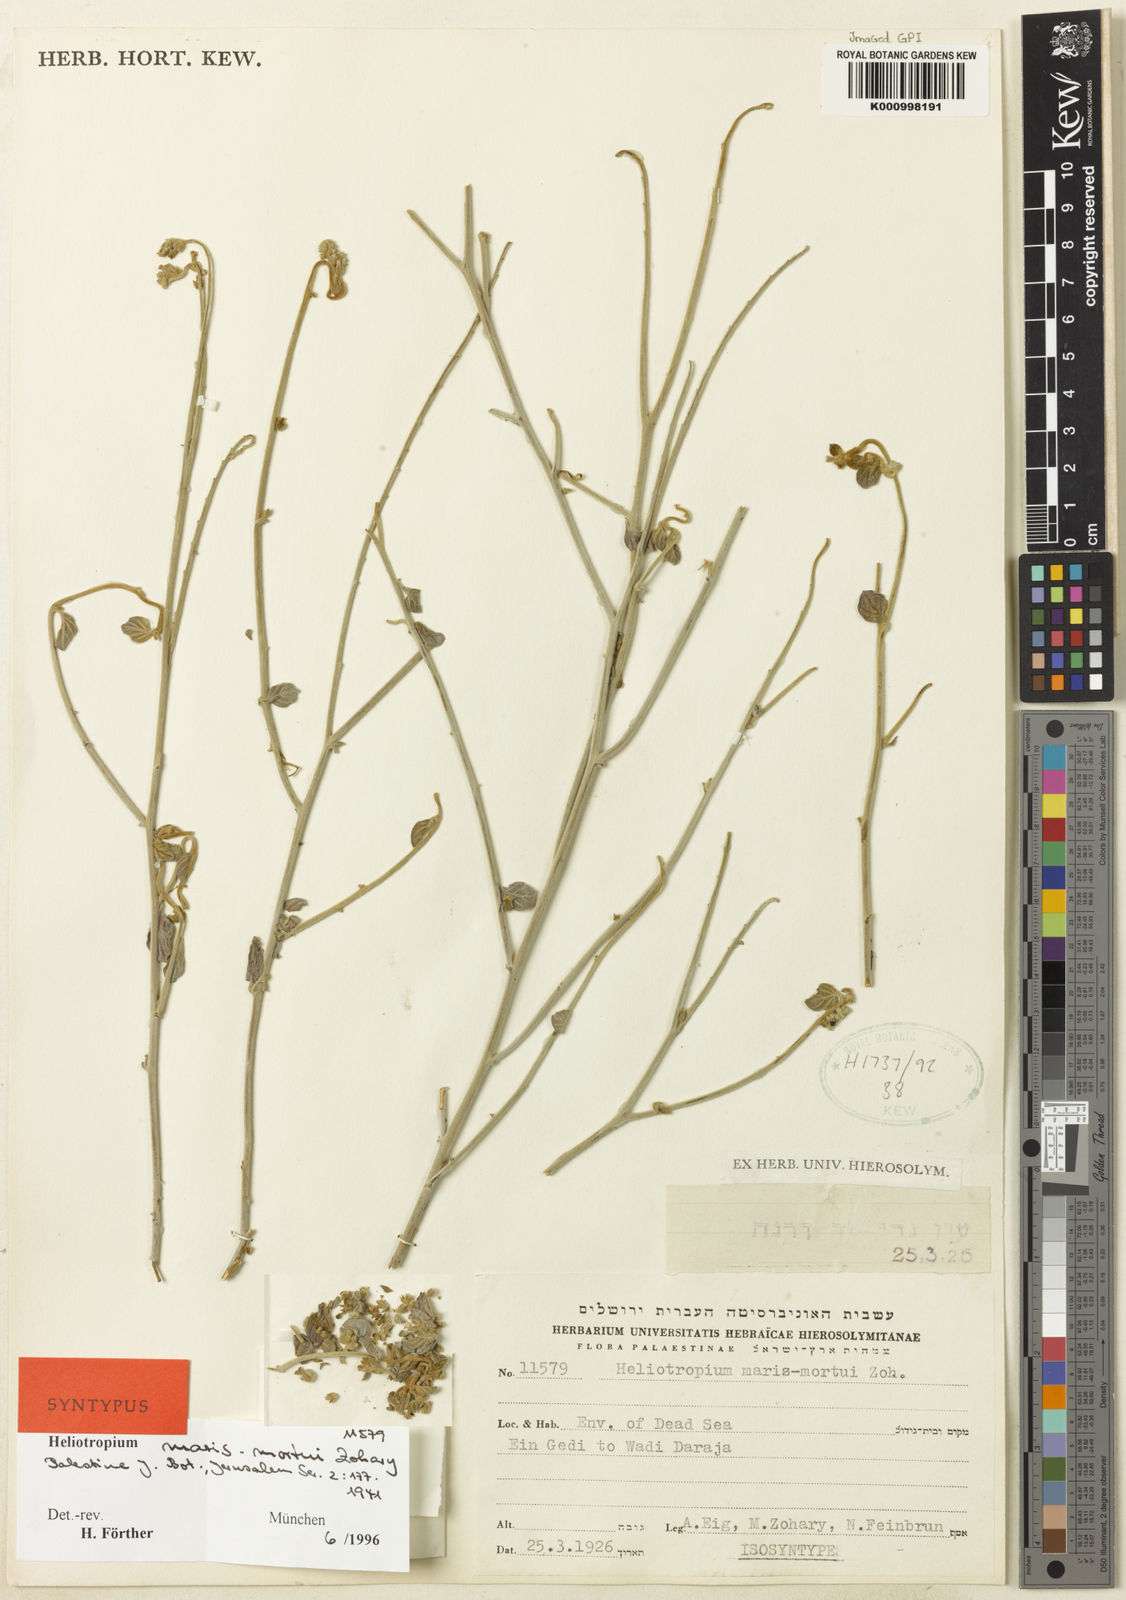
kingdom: Plantae
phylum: Tracheophyta
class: Magnoliopsida
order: Boraginales
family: Heliotropiaceae
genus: Heliotropium
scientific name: Heliotropium maris-mortui
